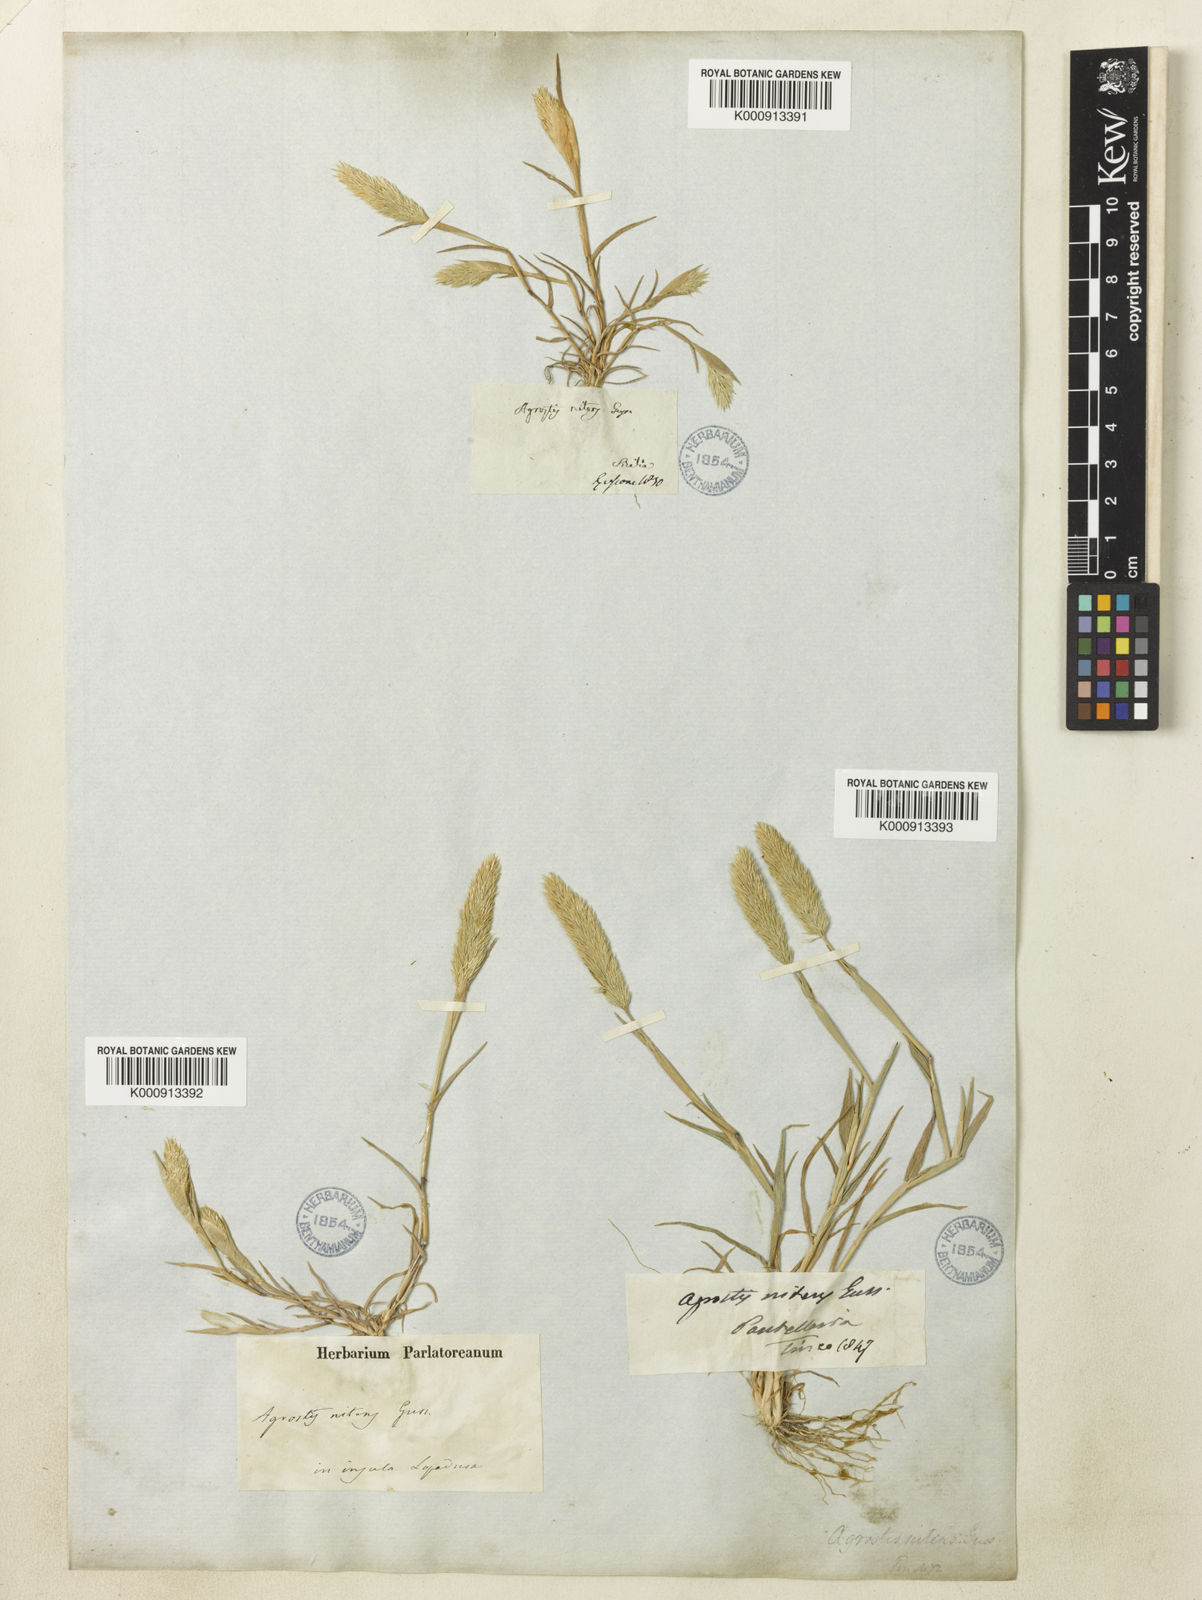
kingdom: Plantae
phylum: Tracheophyta
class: Liliopsida
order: Poales
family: Poaceae
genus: Triplachne
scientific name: Triplachne nitens
